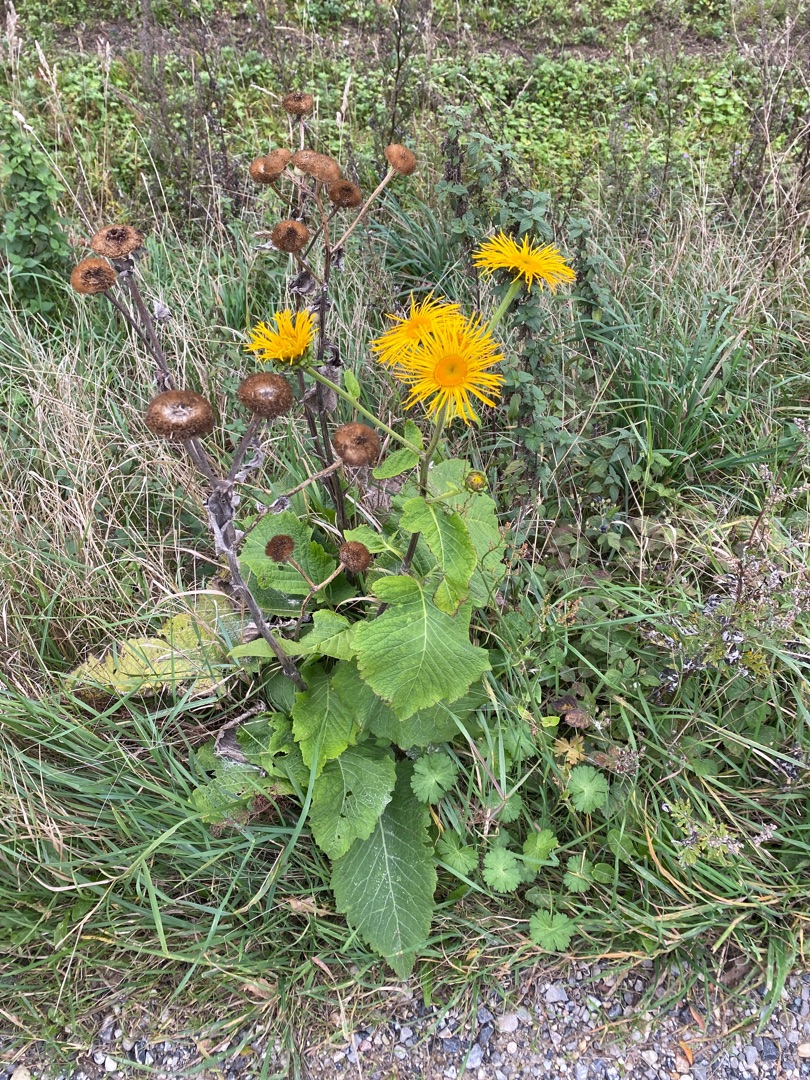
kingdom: Plantae
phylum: Tracheophyta
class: Magnoliopsida
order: Asterales
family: Asteraceae
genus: Telekia
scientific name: Telekia speciosa
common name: Tusindstråle
